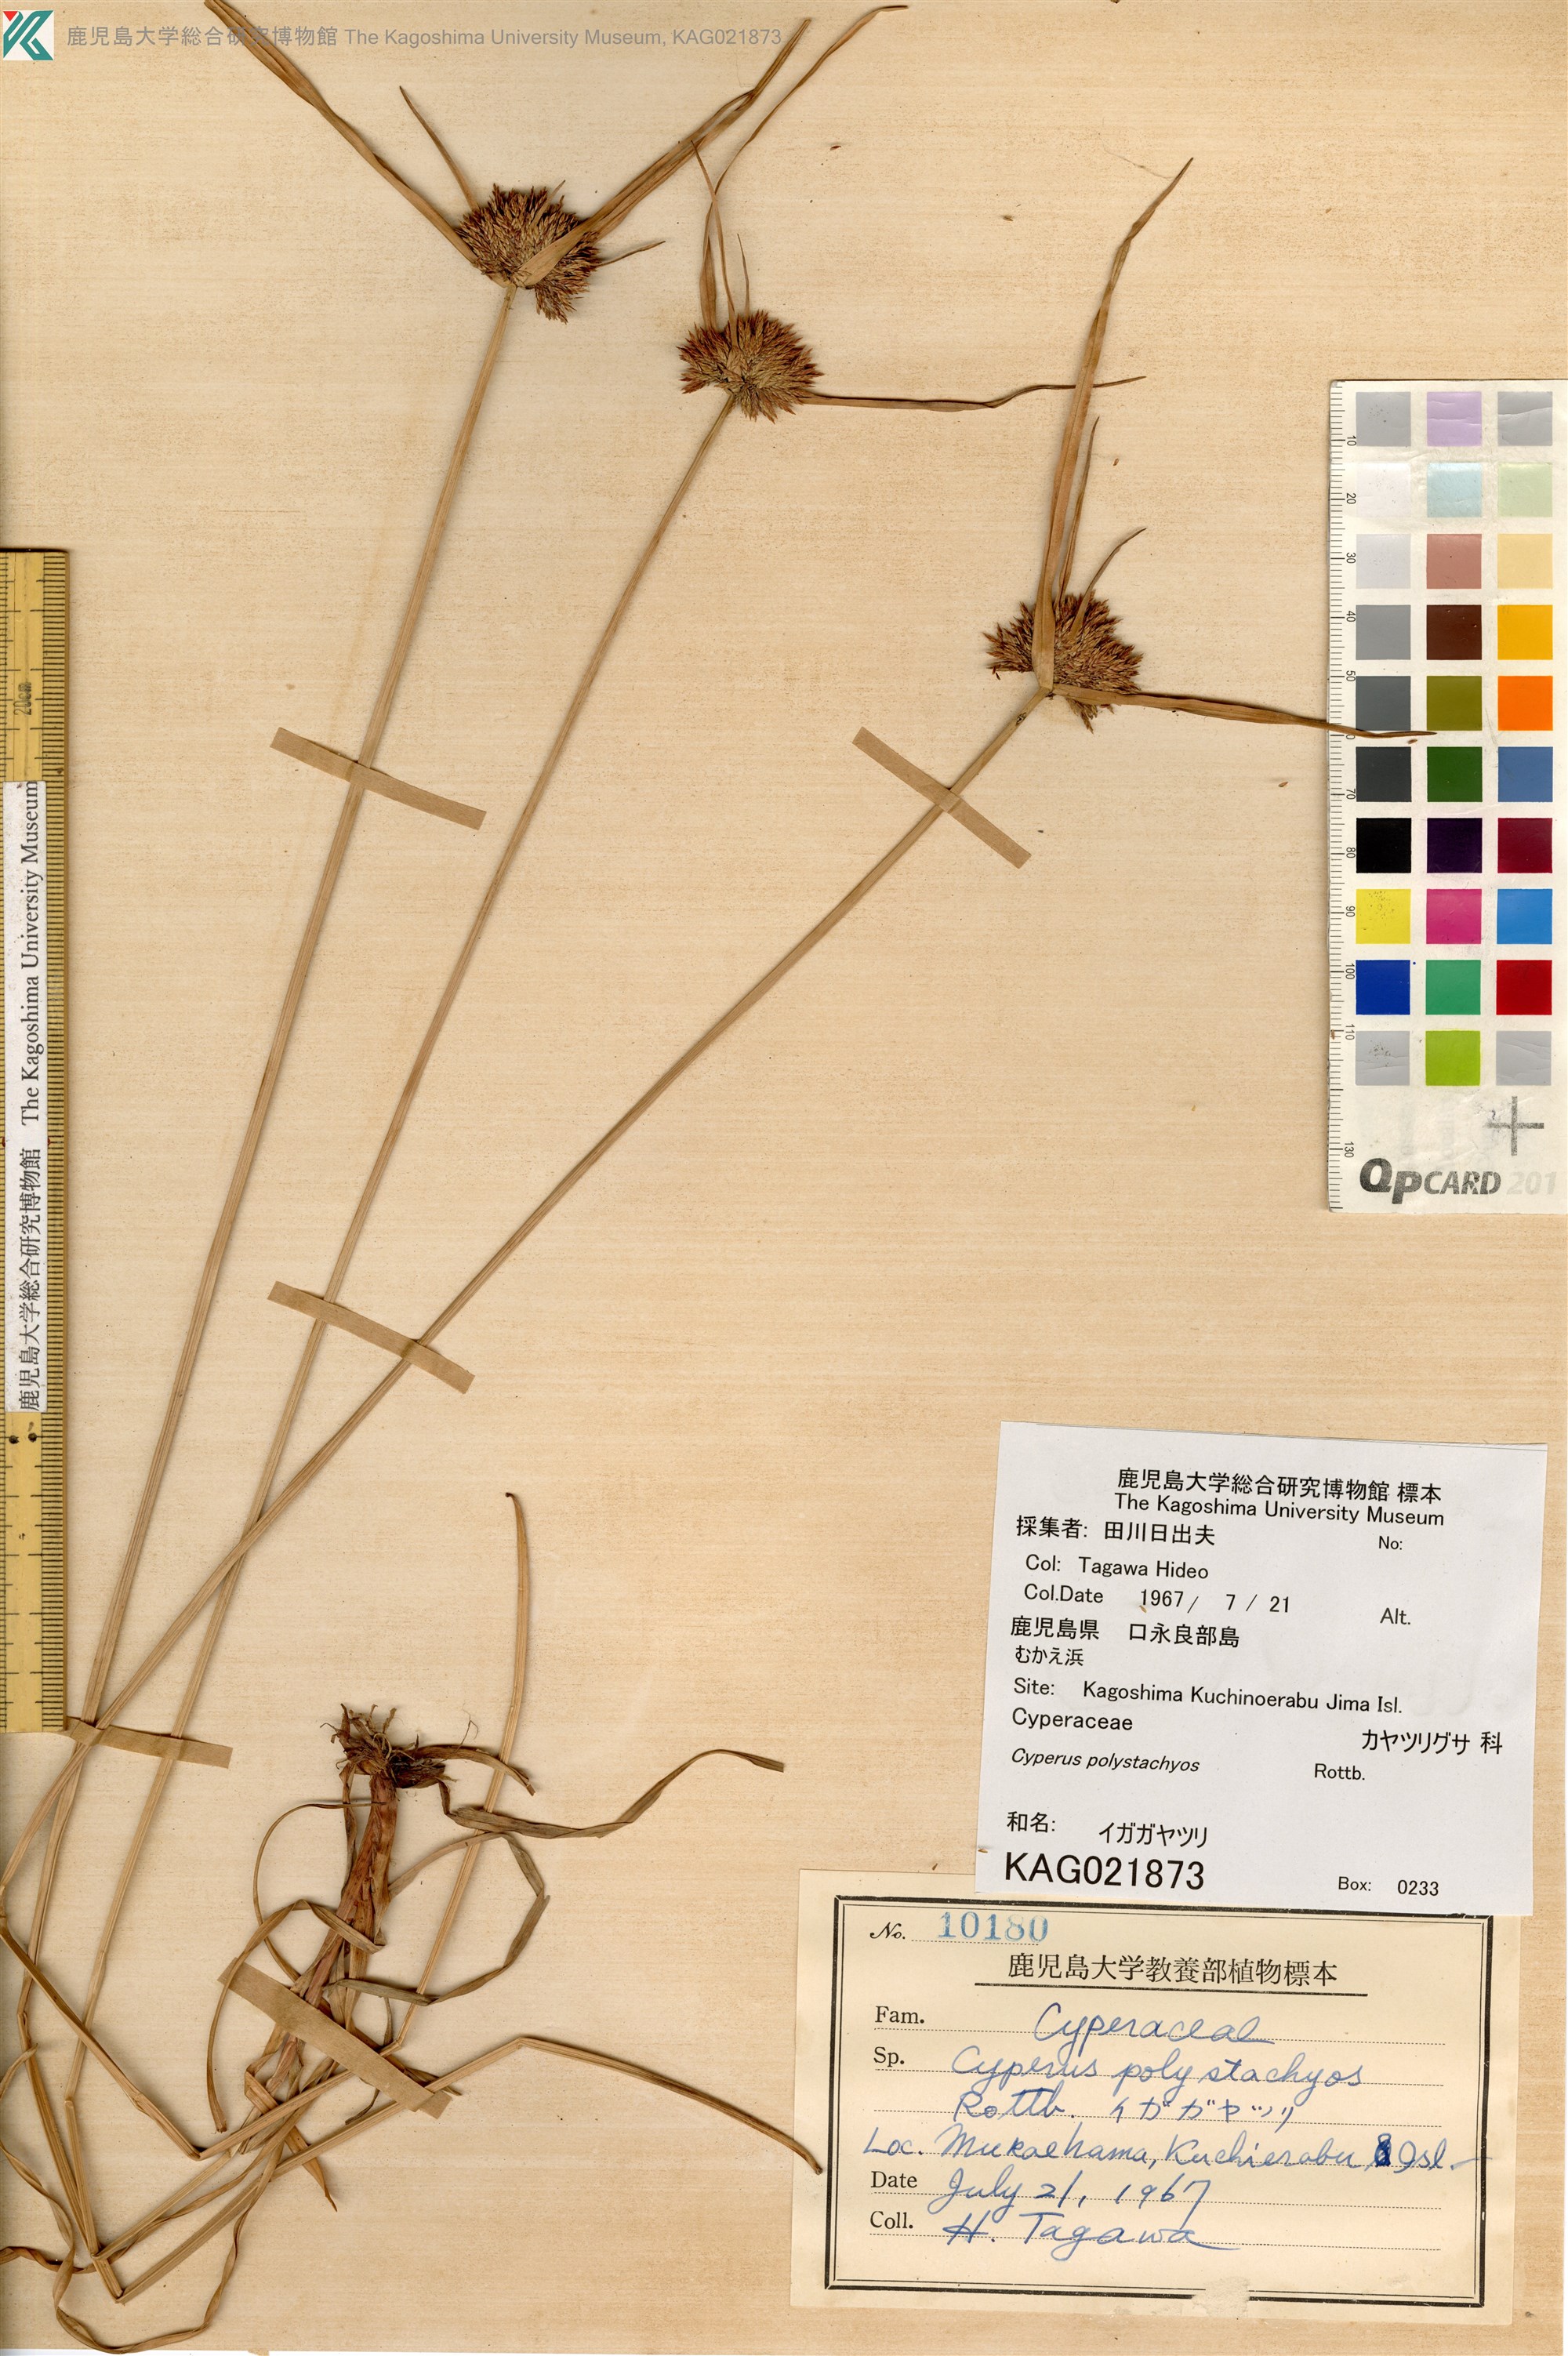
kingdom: Plantae
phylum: Tracheophyta
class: Liliopsida
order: Poales
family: Cyperaceae
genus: Cyperus
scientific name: Cyperus polystachyos
